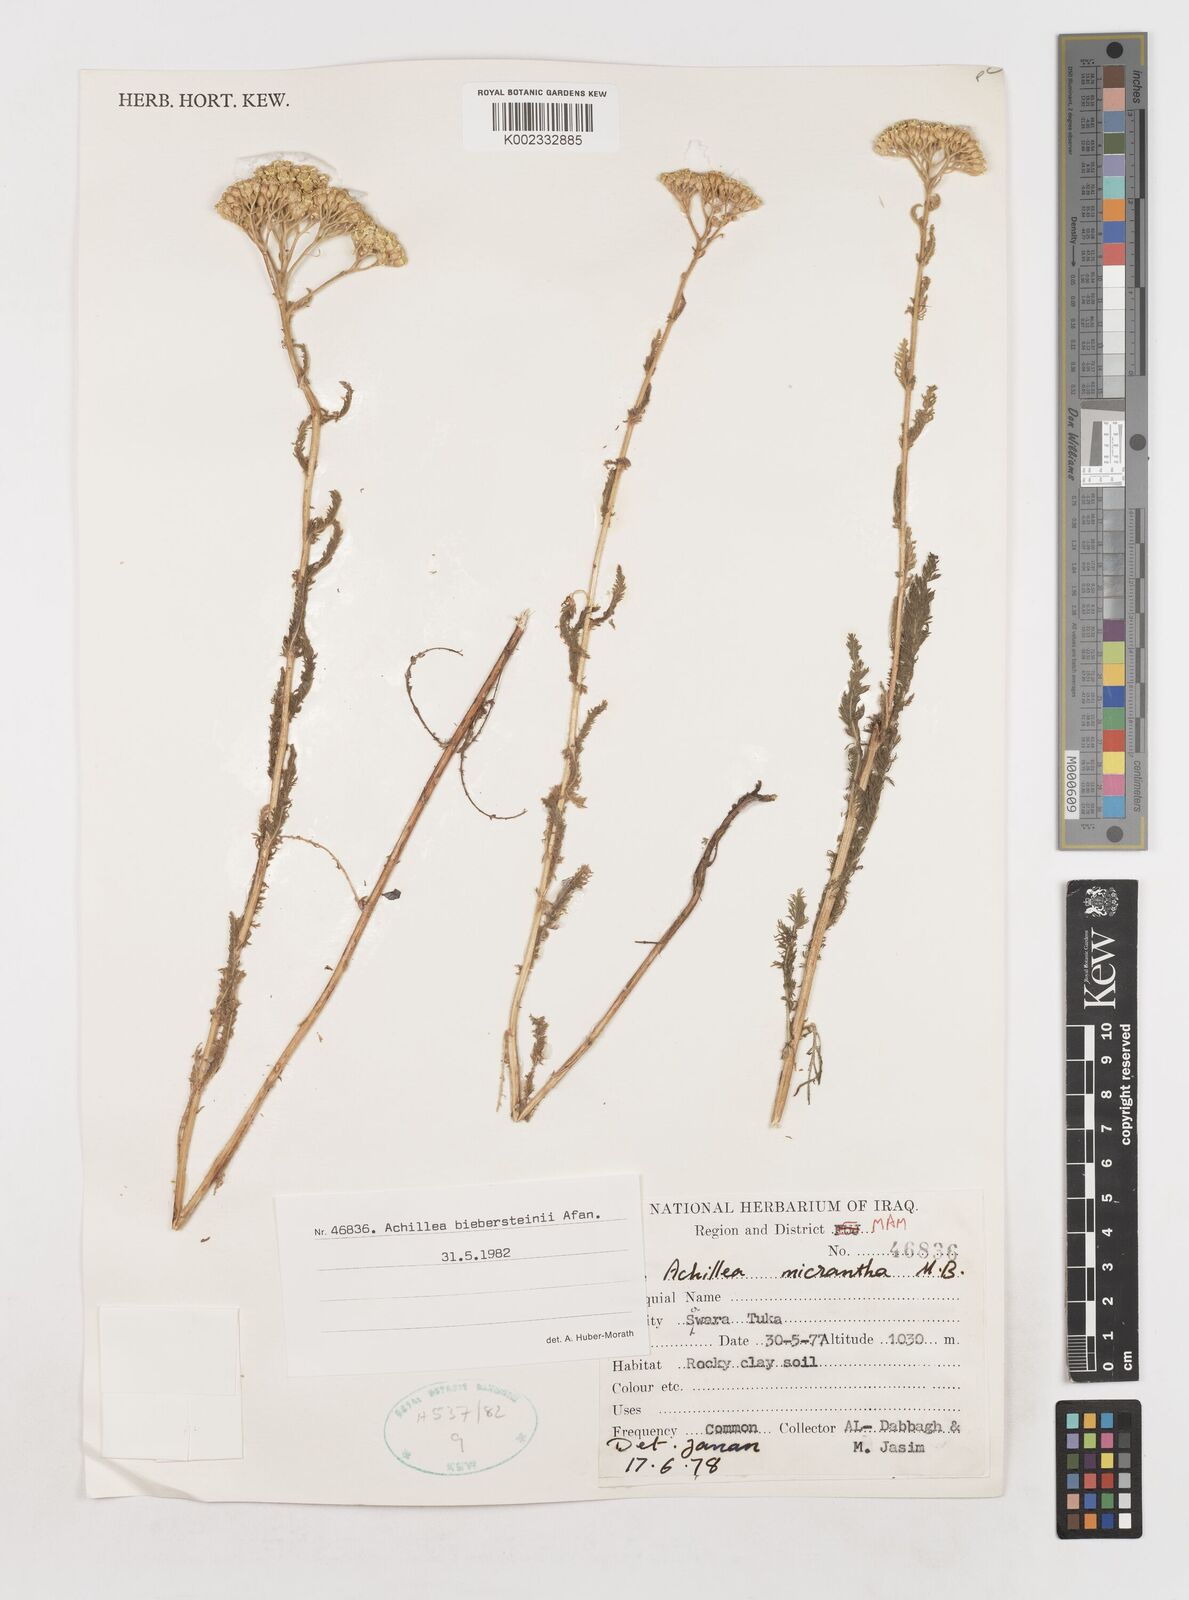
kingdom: Plantae
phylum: Tracheophyta
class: Magnoliopsida
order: Asterales
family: Asteraceae
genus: Achillea
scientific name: Achillea arabica
